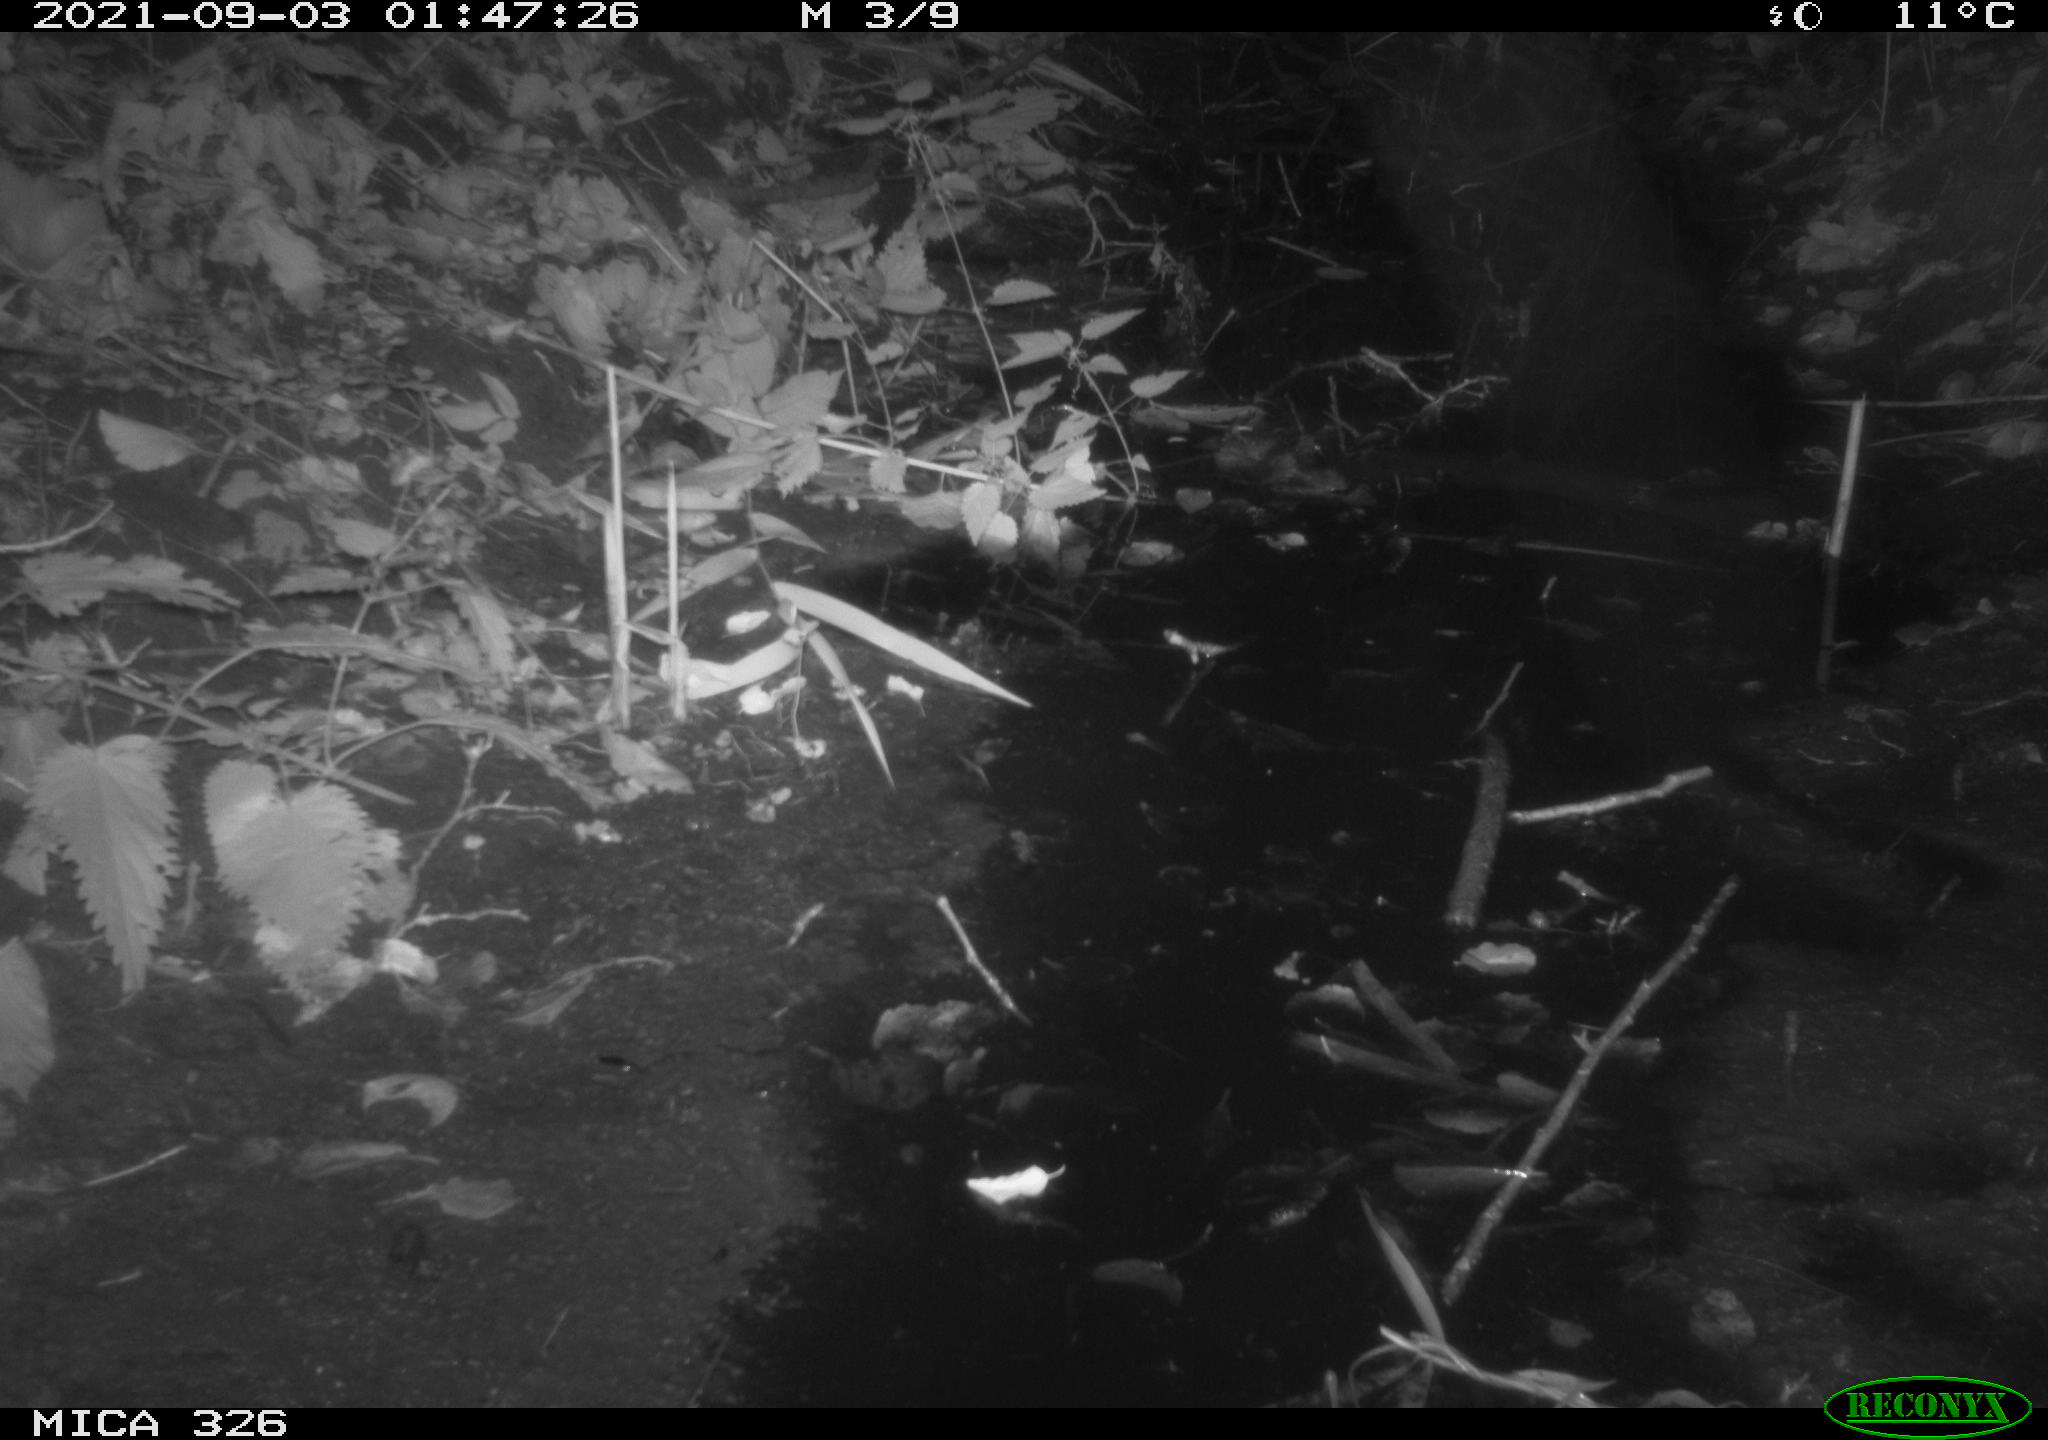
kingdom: Animalia
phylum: Chordata
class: Mammalia
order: Rodentia
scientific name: Rodentia
